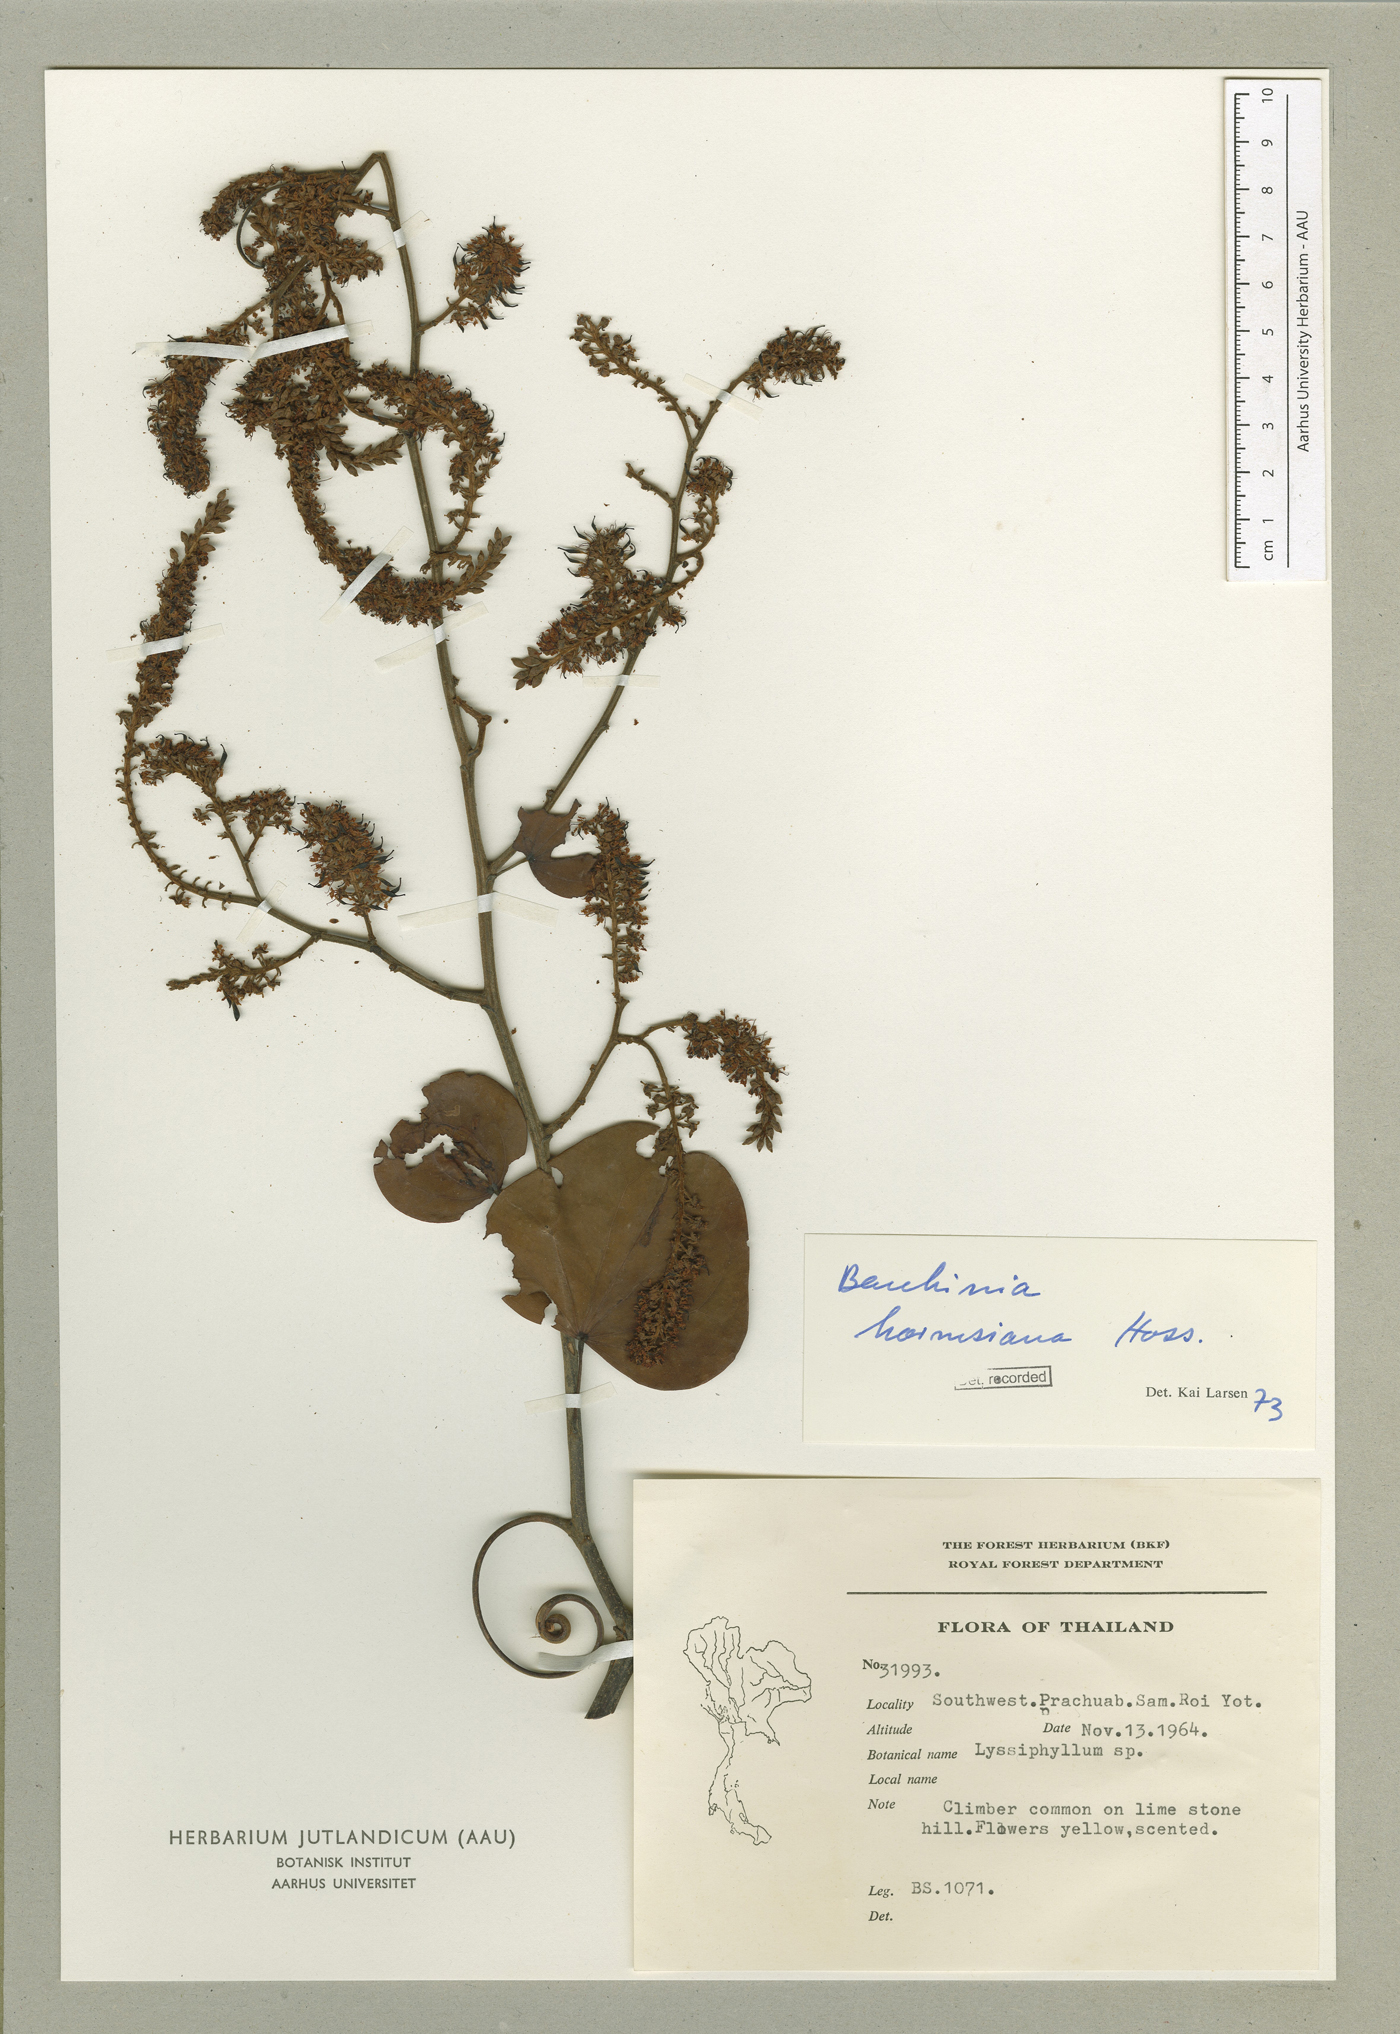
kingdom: Plantae
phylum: Tracheophyta
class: Magnoliopsida
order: Fabales
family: Fabaceae
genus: Phanera
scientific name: Phanera harmsiana
